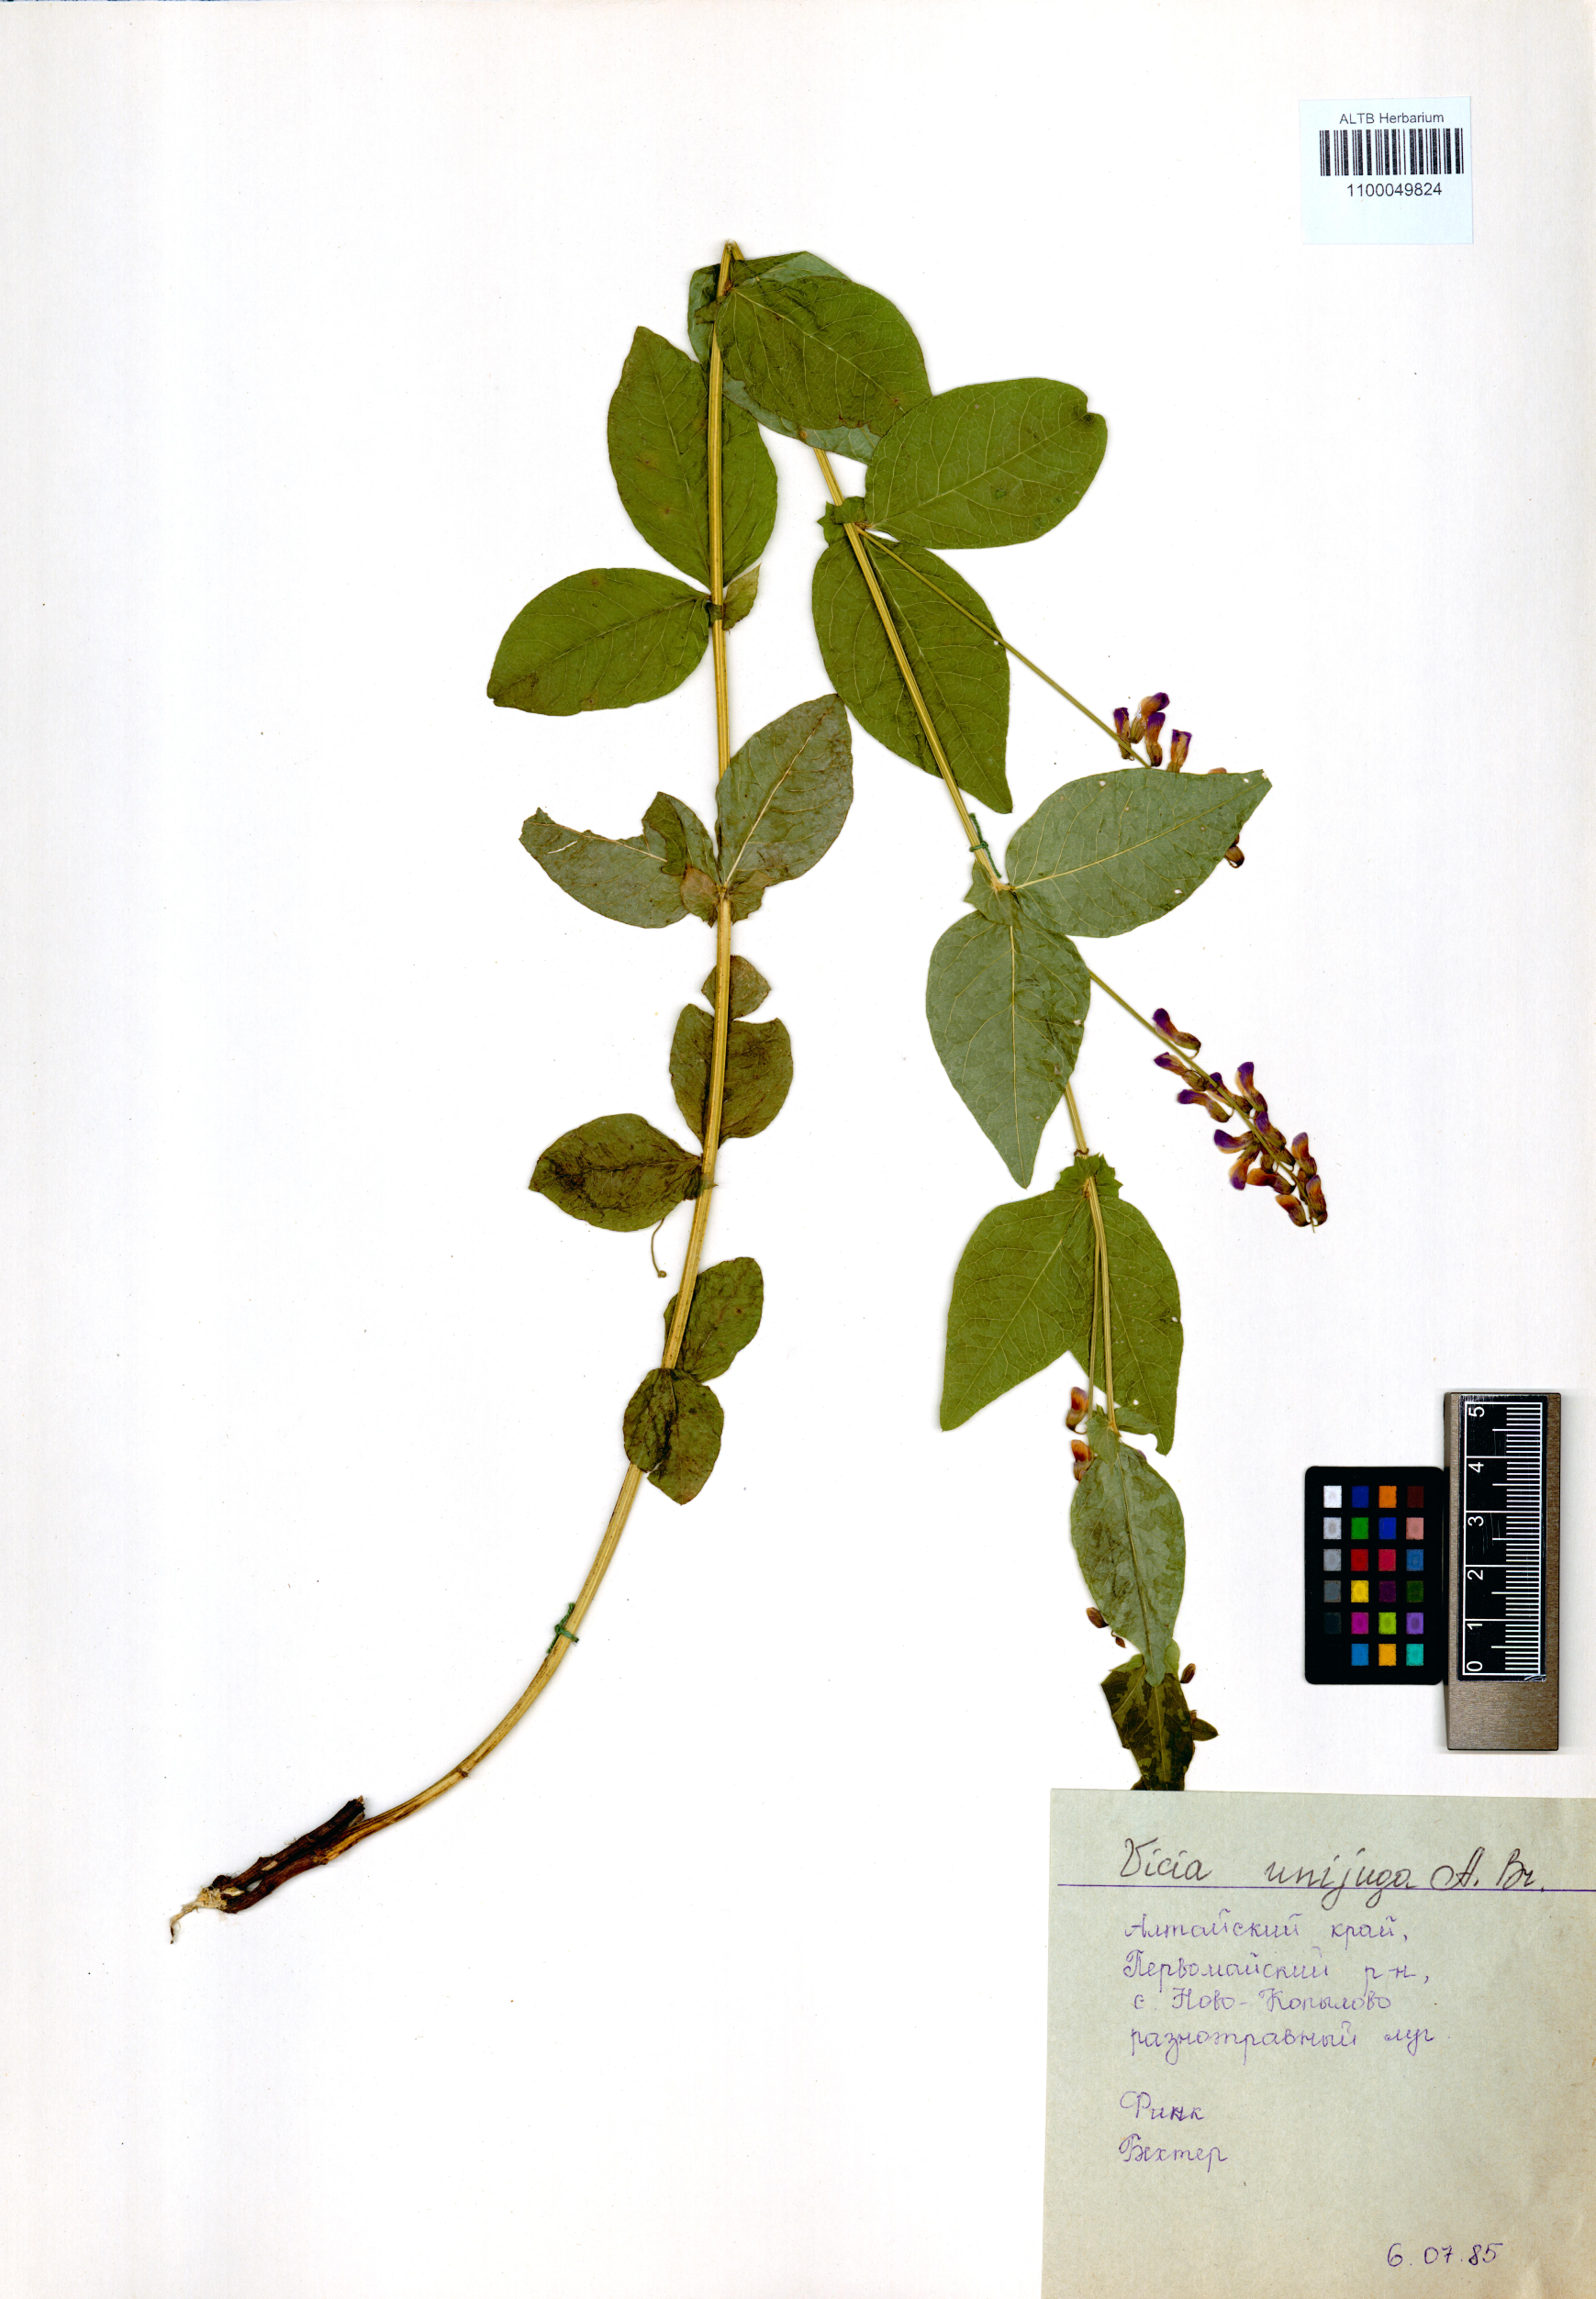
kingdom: Plantae
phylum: Tracheophyta
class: Magnoliopsida
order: Fabales
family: Fabaceae
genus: Vicia
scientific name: Vicia unijuga
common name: Two-leaf vetch
